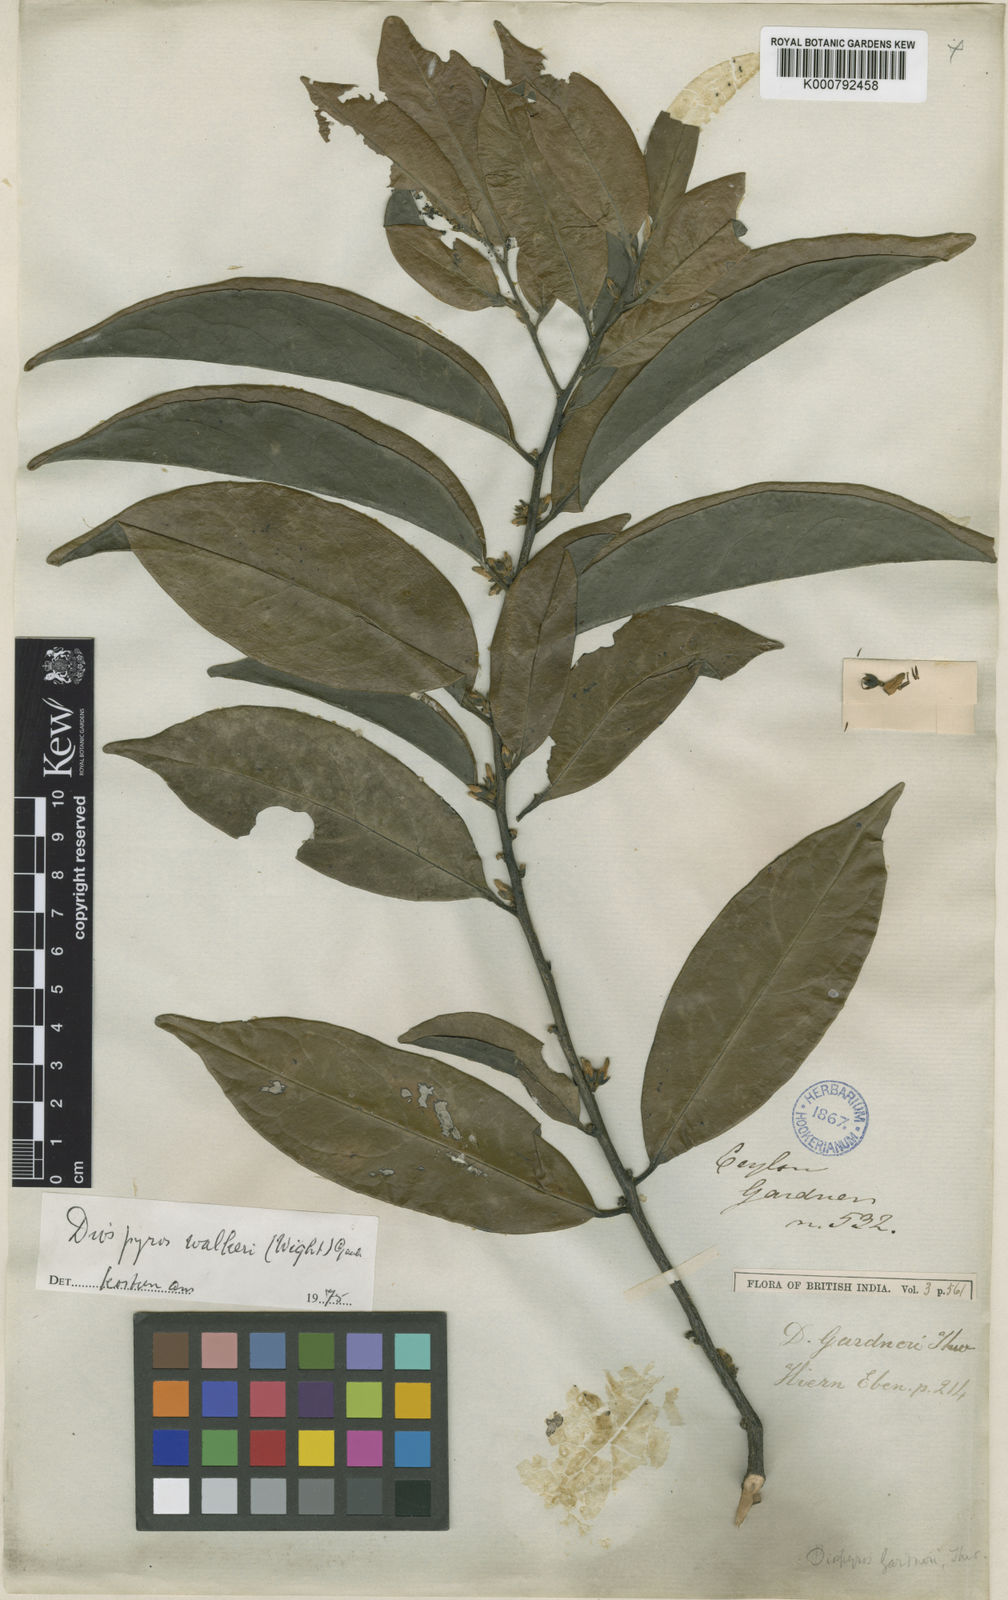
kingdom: Plantae
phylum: Tracheophyta
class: Magnoliopsida
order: Ericales
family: Ebenaceae
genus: Diospyros
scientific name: Diospyros
